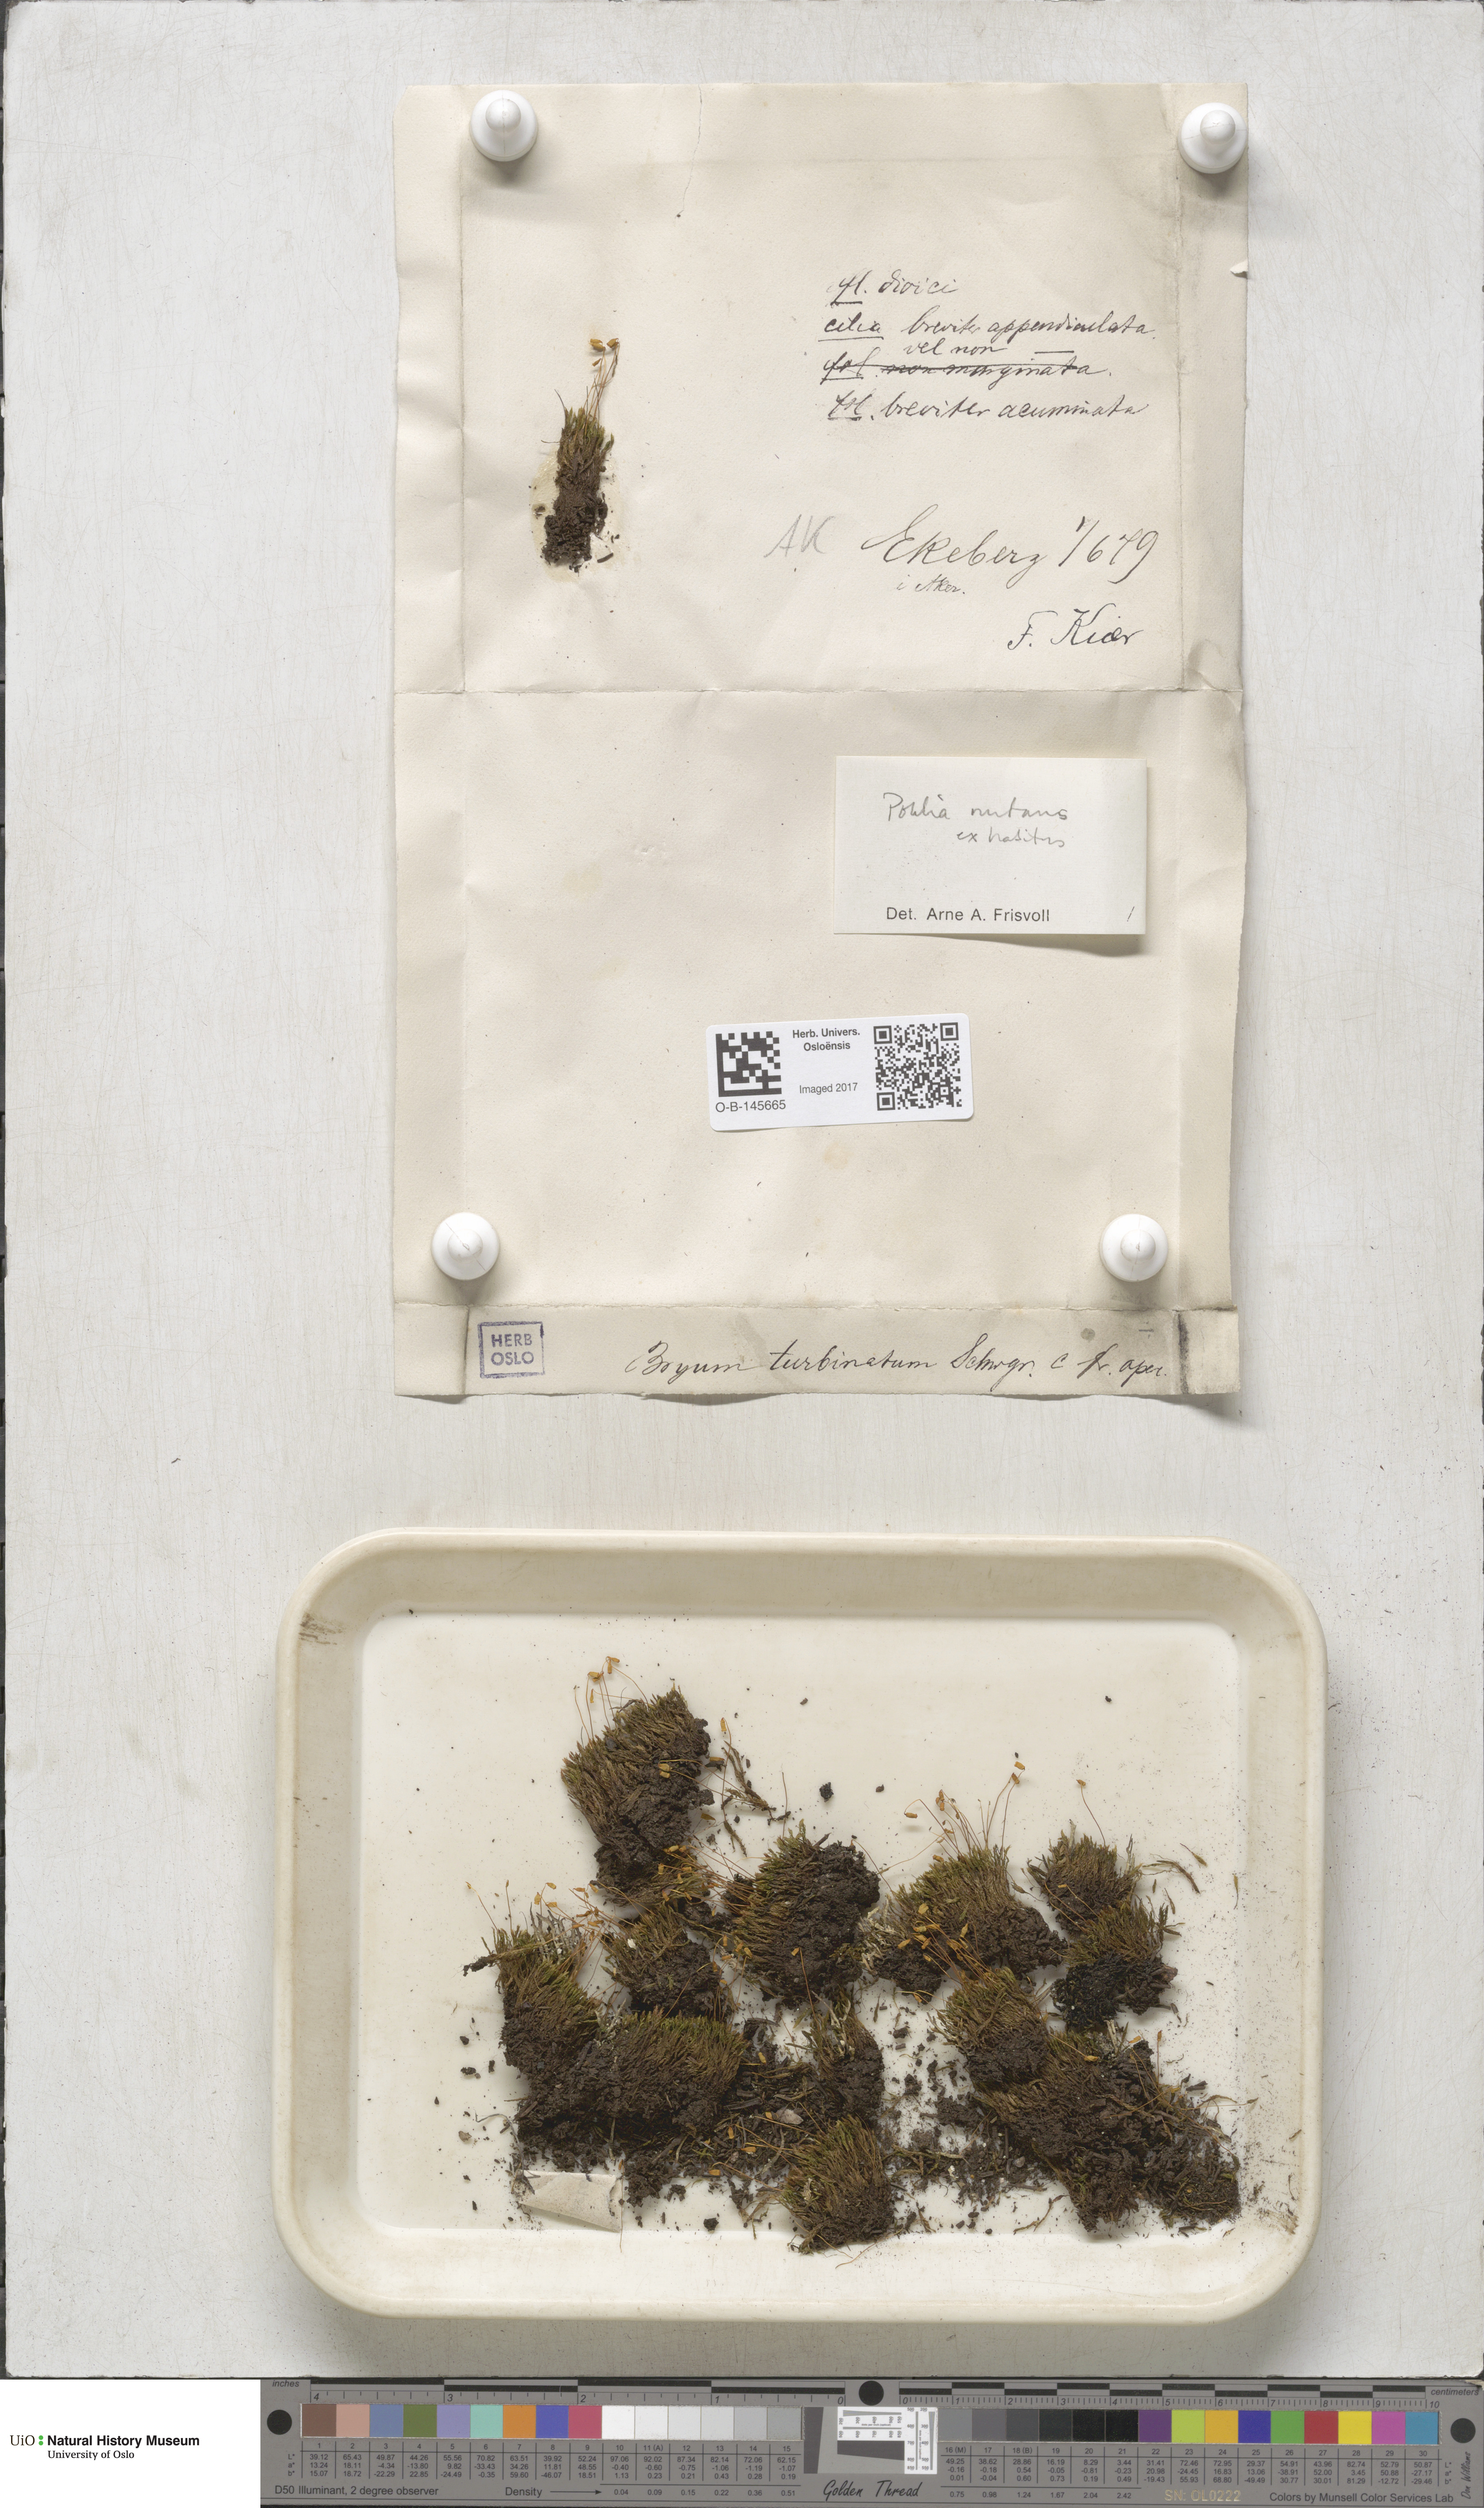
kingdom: Plantae
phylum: Bryophyta
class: Bryopsida
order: Bryales
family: Mniaceae
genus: Pohlia
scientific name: Pohlia nutans
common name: Nodding thread-moss
